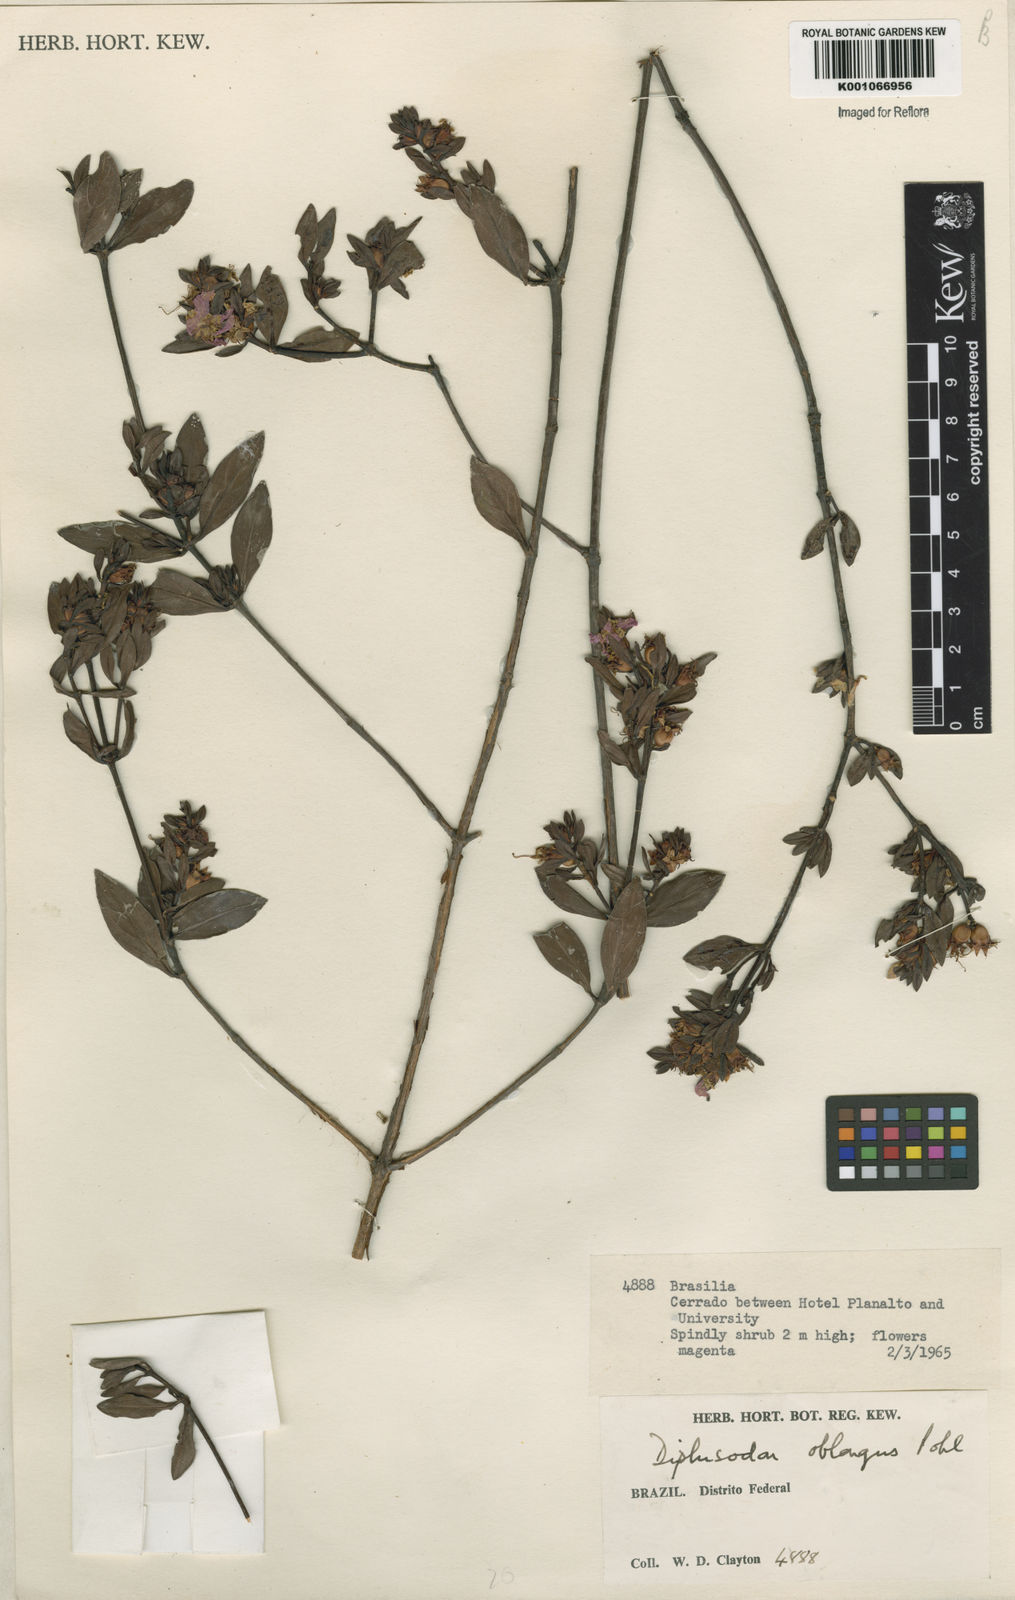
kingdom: Plantae
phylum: Tracheophyta
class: Magnoliopsida
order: Myrtales
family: Lythraceae
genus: Diplusodon
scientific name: Diplusodon oblongus
